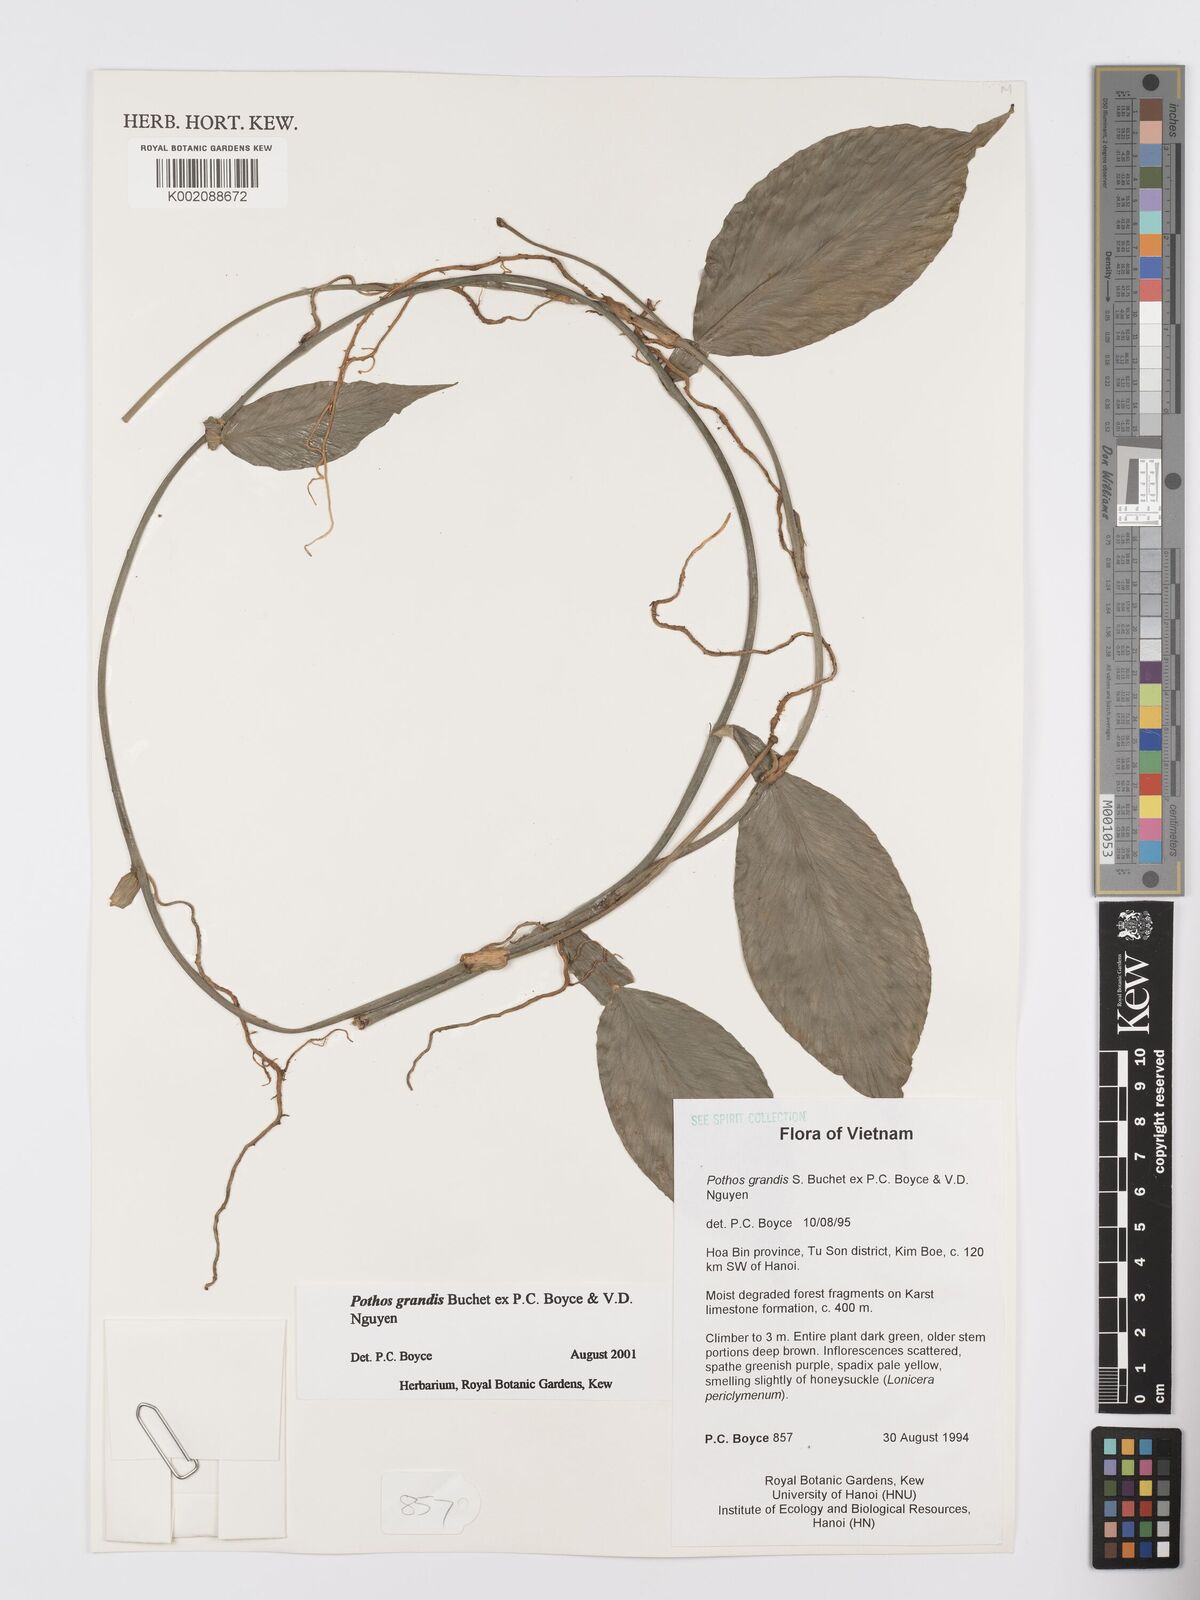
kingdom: Plantae
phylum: Tracheophyta
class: Liliopsida
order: Alismatales
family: Araceae
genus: Pothos
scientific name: Pothos grandis
